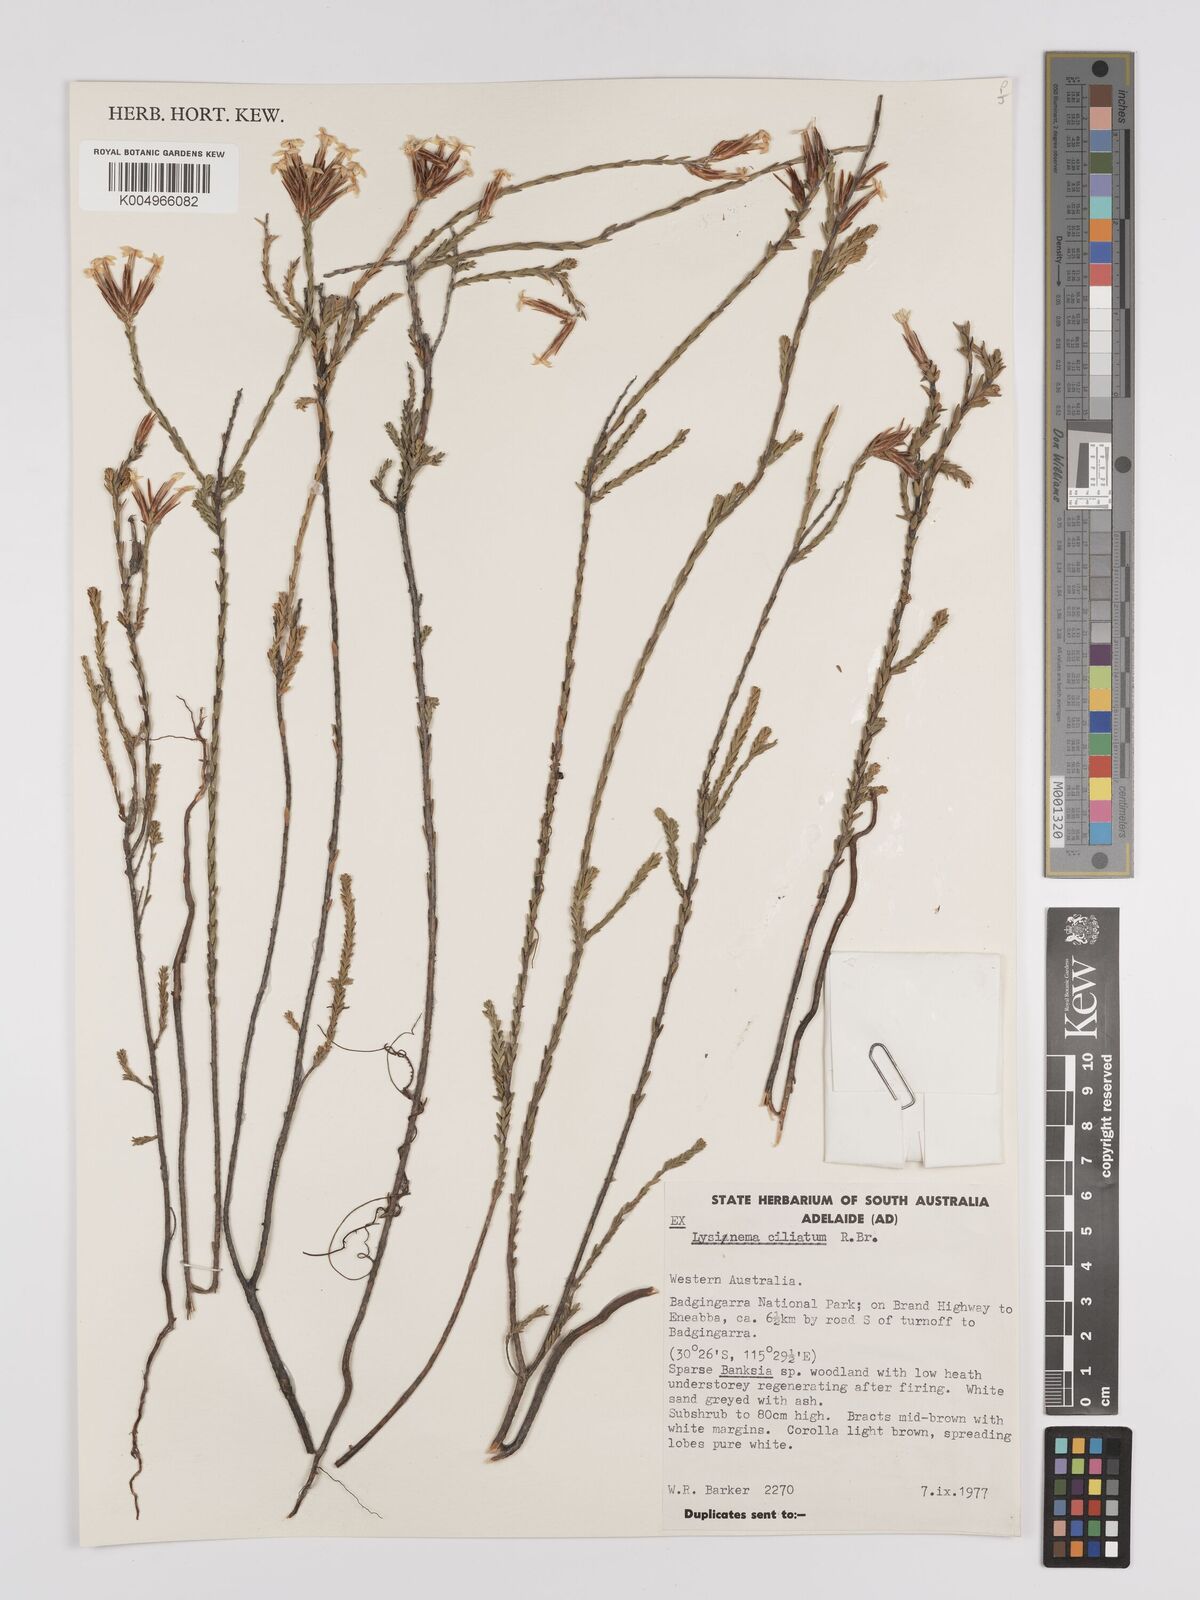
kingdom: Plantae
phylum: Tracheophyta
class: Magnoliopsida
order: Ericales
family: Ericaceae
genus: Lysinema
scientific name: Lysinema ciliatum
